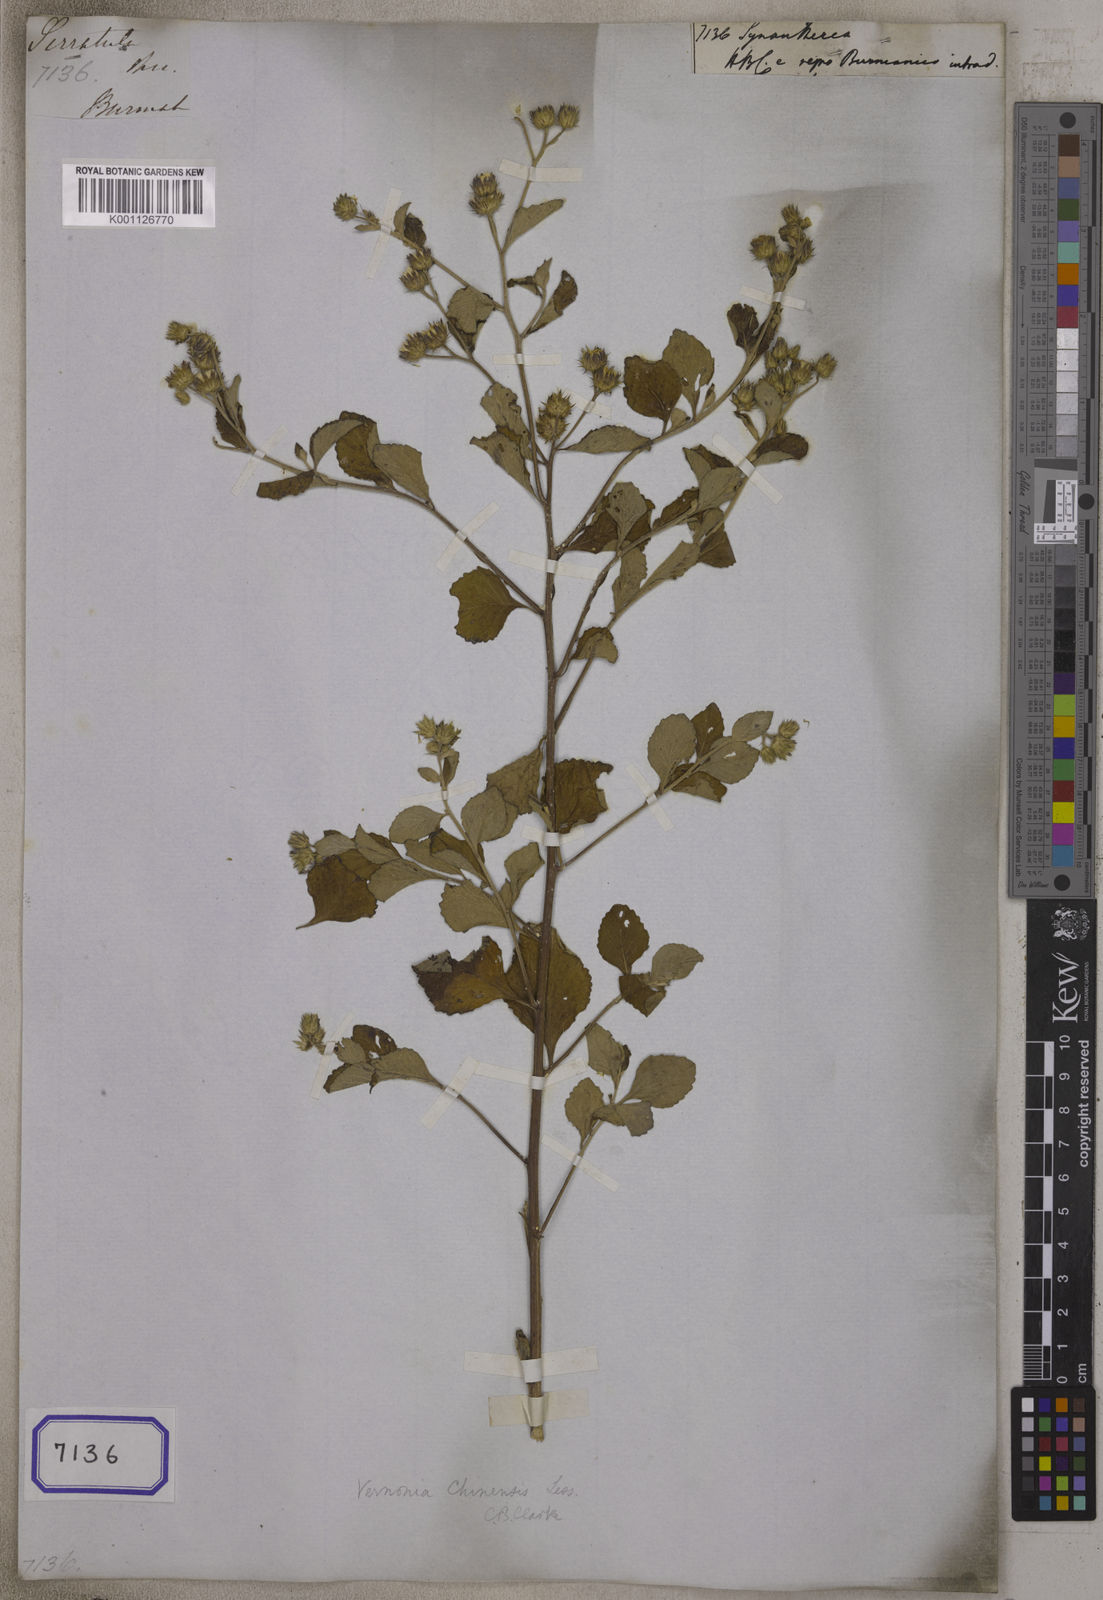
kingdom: Plantae
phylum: Tracheophyta
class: Magnoliopsida
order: Asterales
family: Asteraceae
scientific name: Asteraceae
